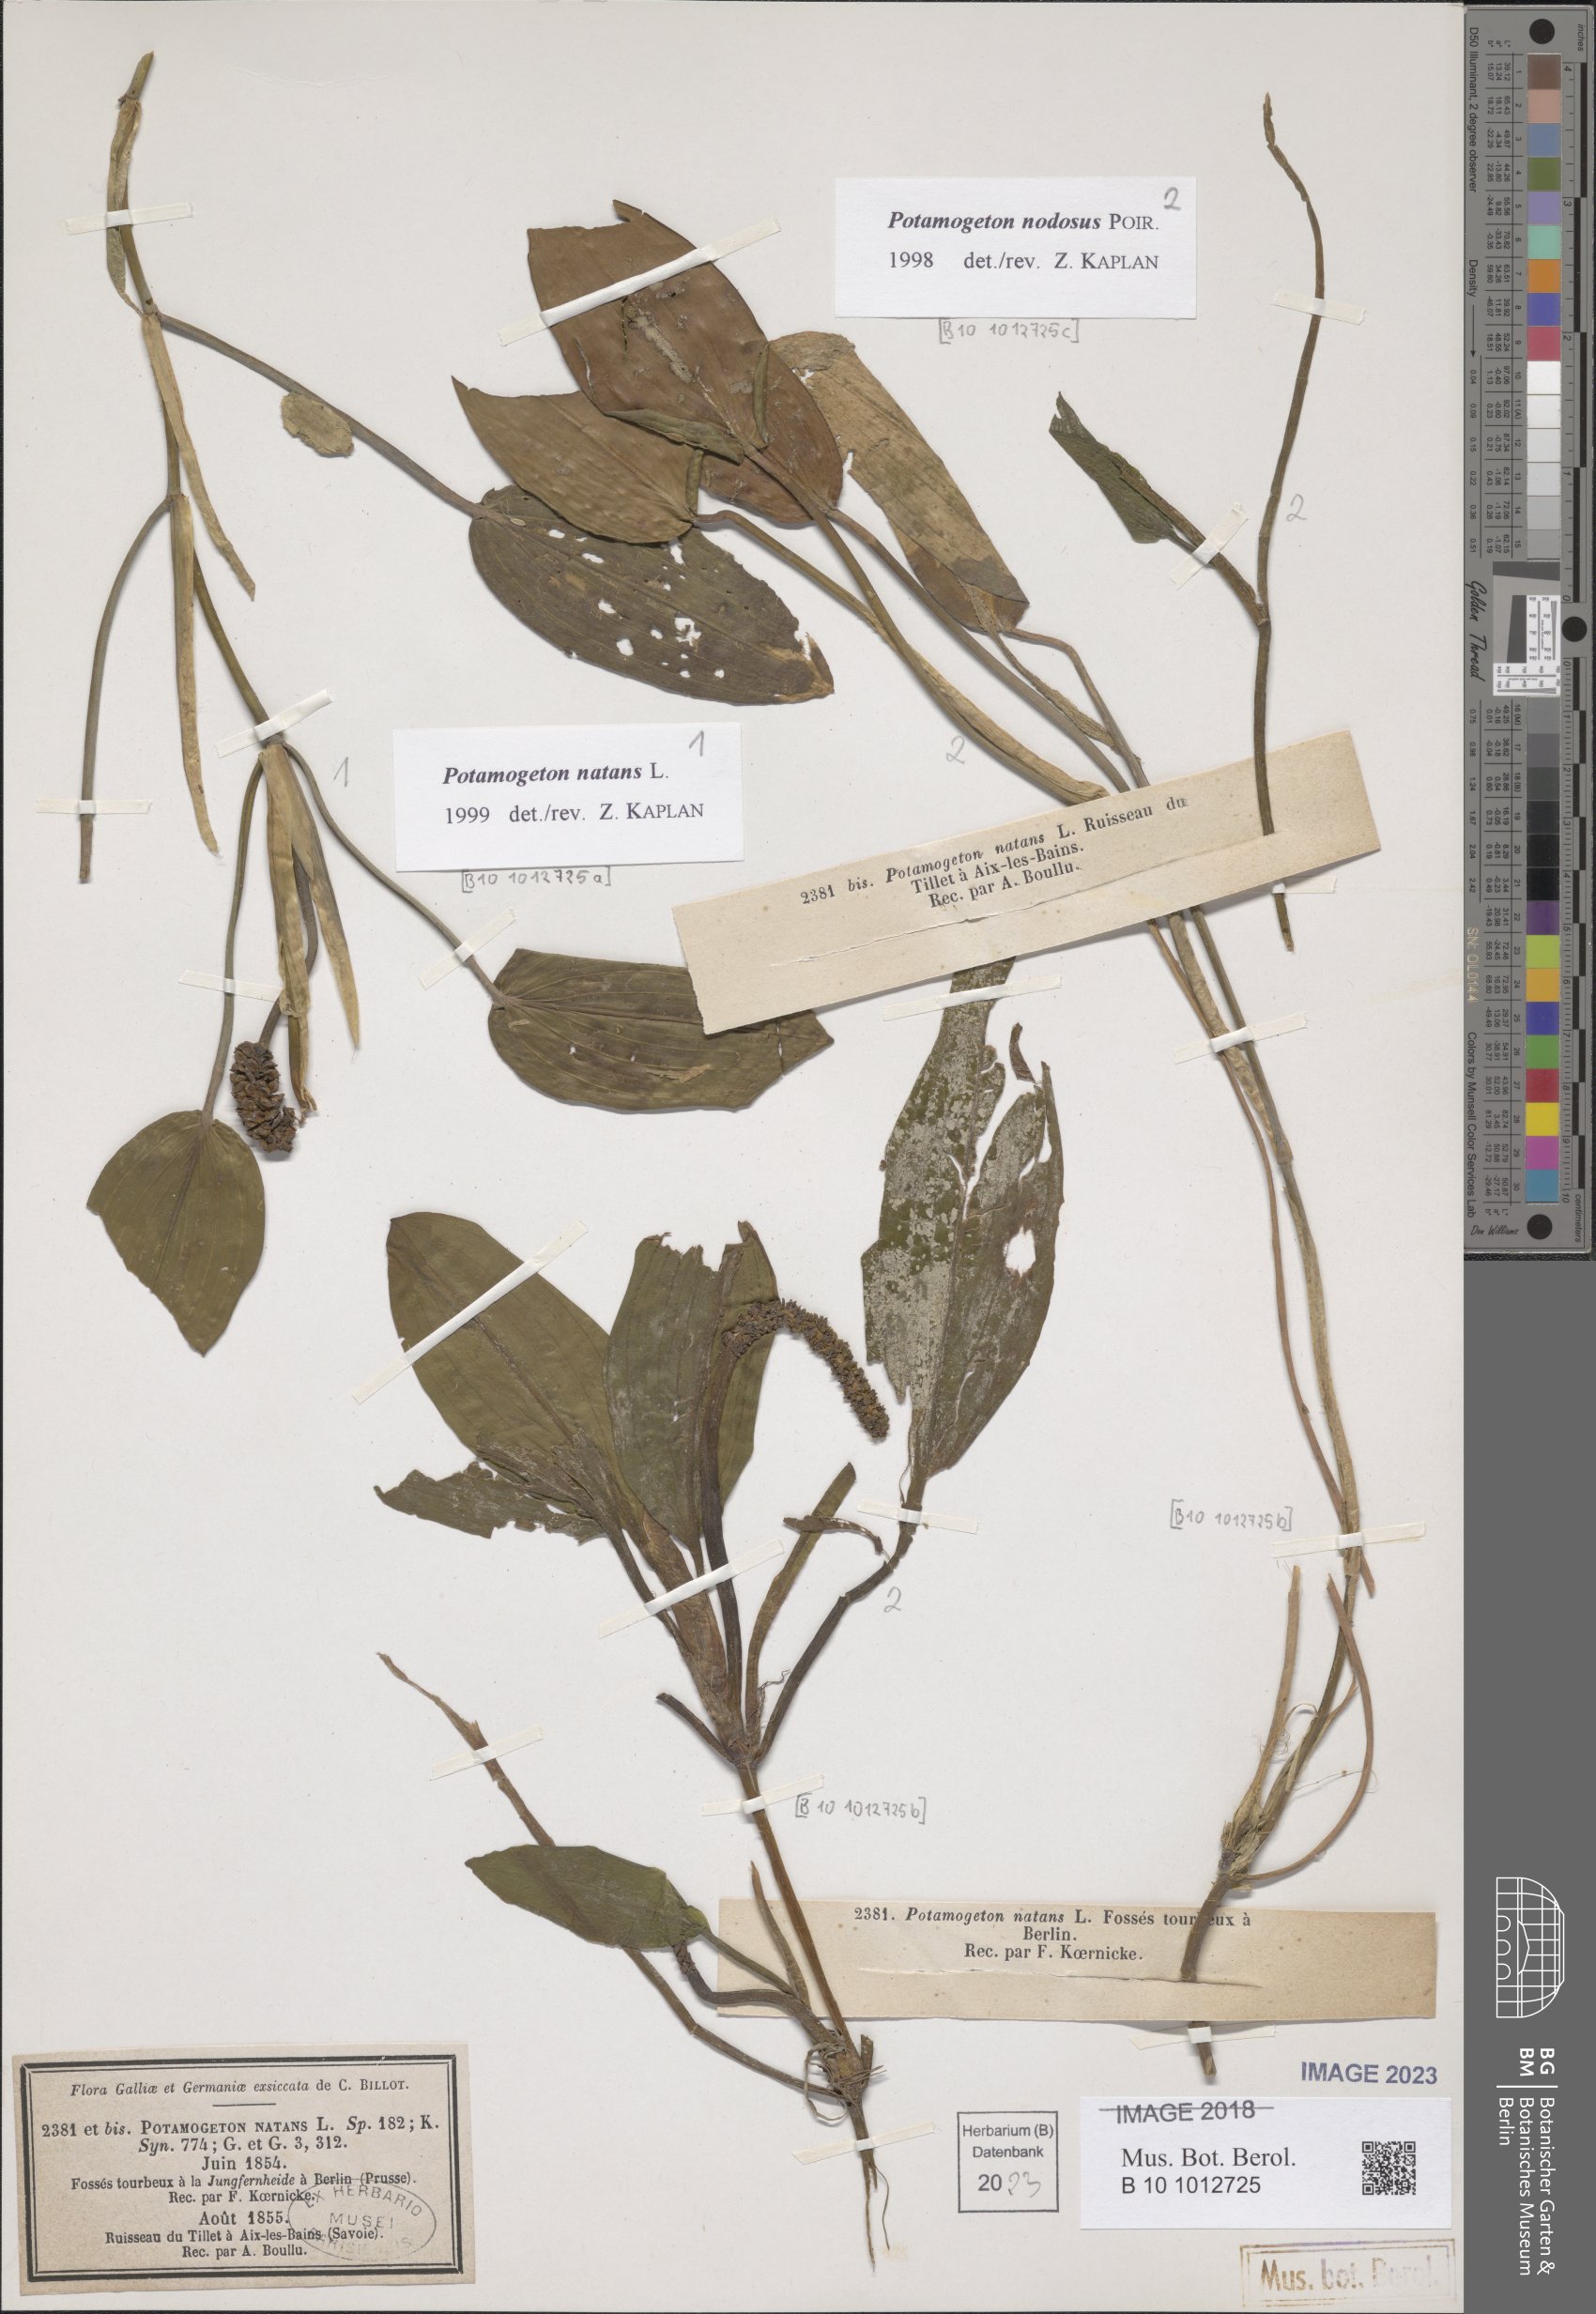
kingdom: Plantae
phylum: Tracheophyta
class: Liliopsida
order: Alismatales
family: Potamogetonaceae
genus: Potamogeton
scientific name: Potamogeton natans
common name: Broad-leaved pondweed
